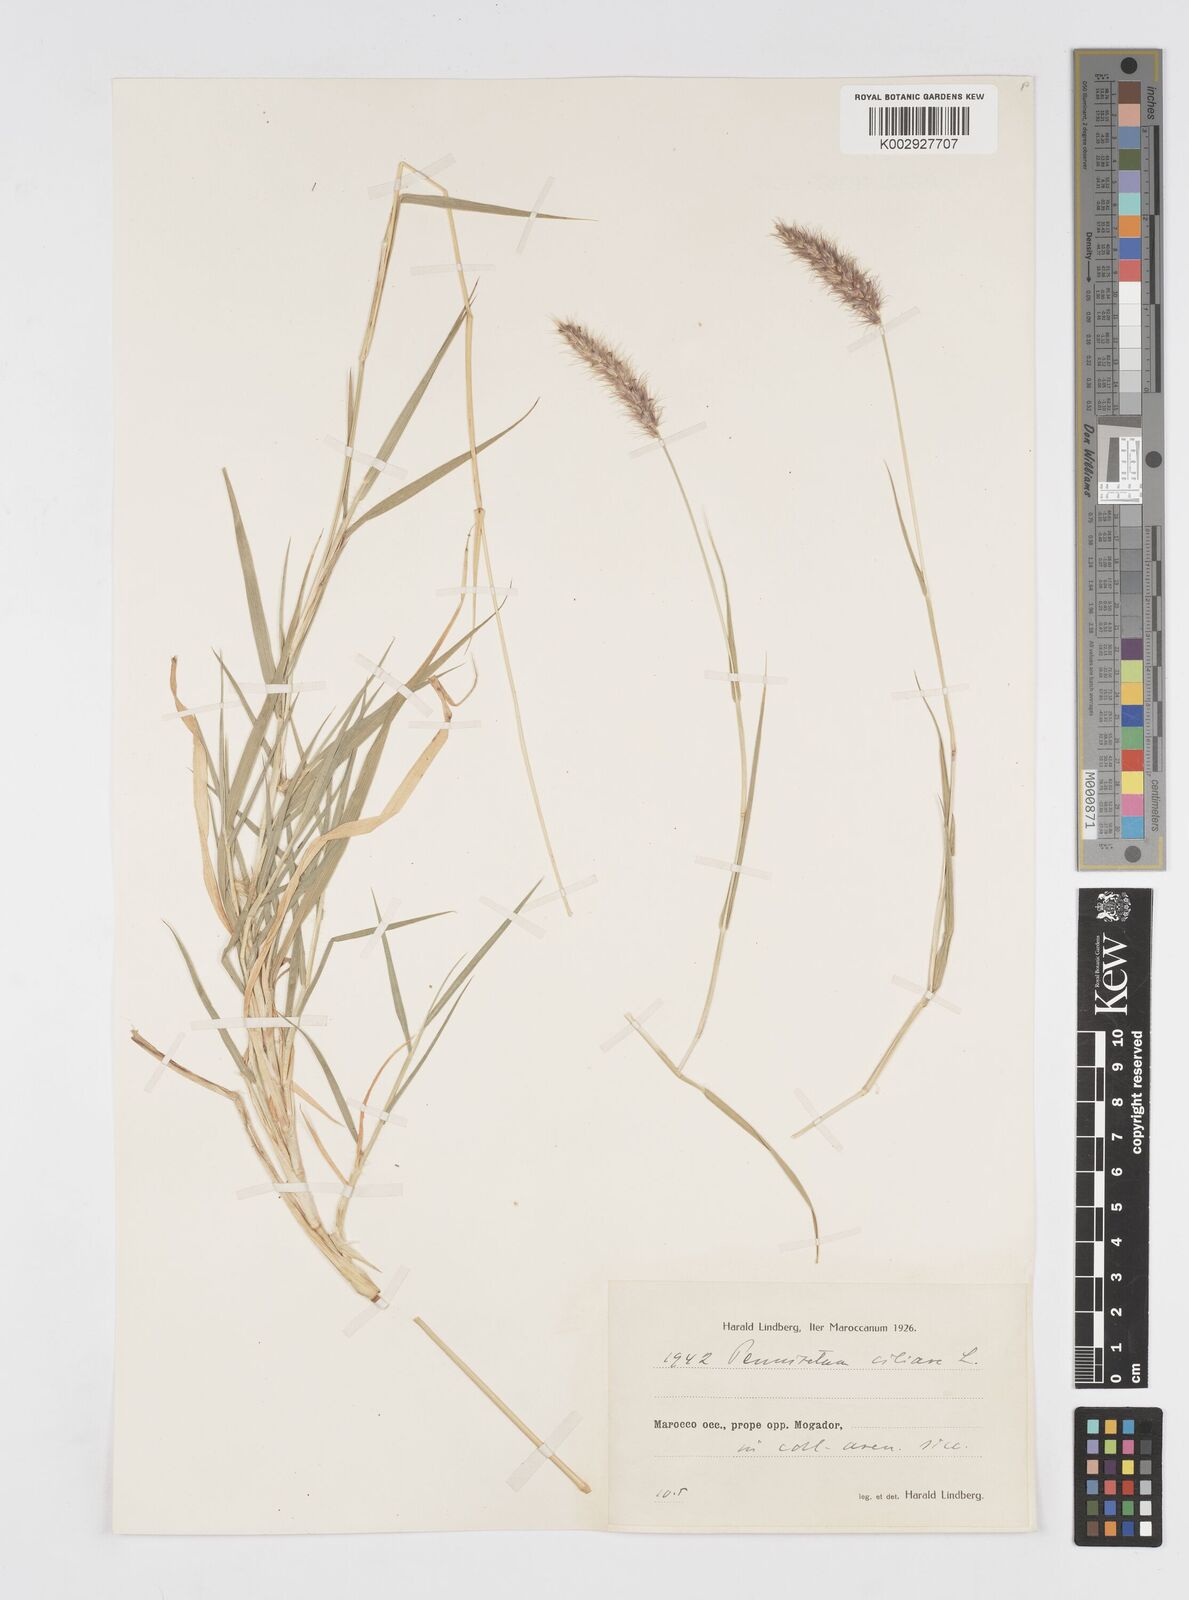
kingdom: Plantae
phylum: Tracheophyta
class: Liliopsida
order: Poales
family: Poaceae
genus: Cenchrus
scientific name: Cenchrus ciliaris
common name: Buffelgrass
